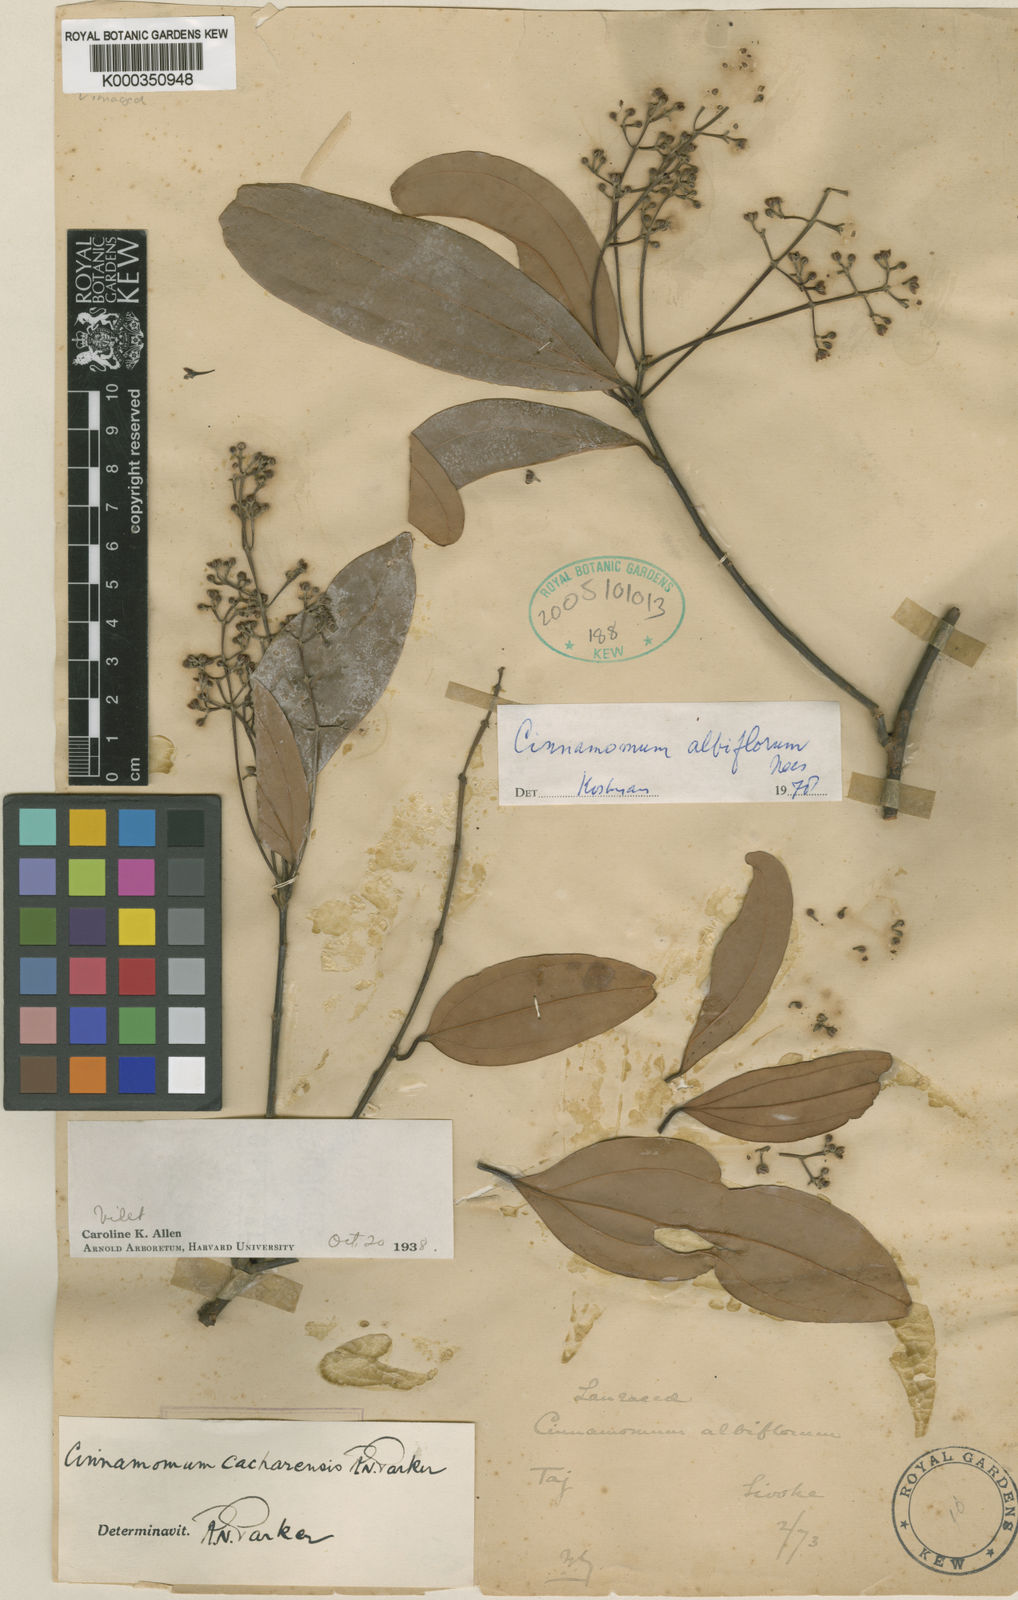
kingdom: Plantae
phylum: Tracheophyta
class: Magnoliopsida
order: Laurales
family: Lauraceae
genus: Cinnamomum
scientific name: Cinnamomum tamala
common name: Indian bay leaves
